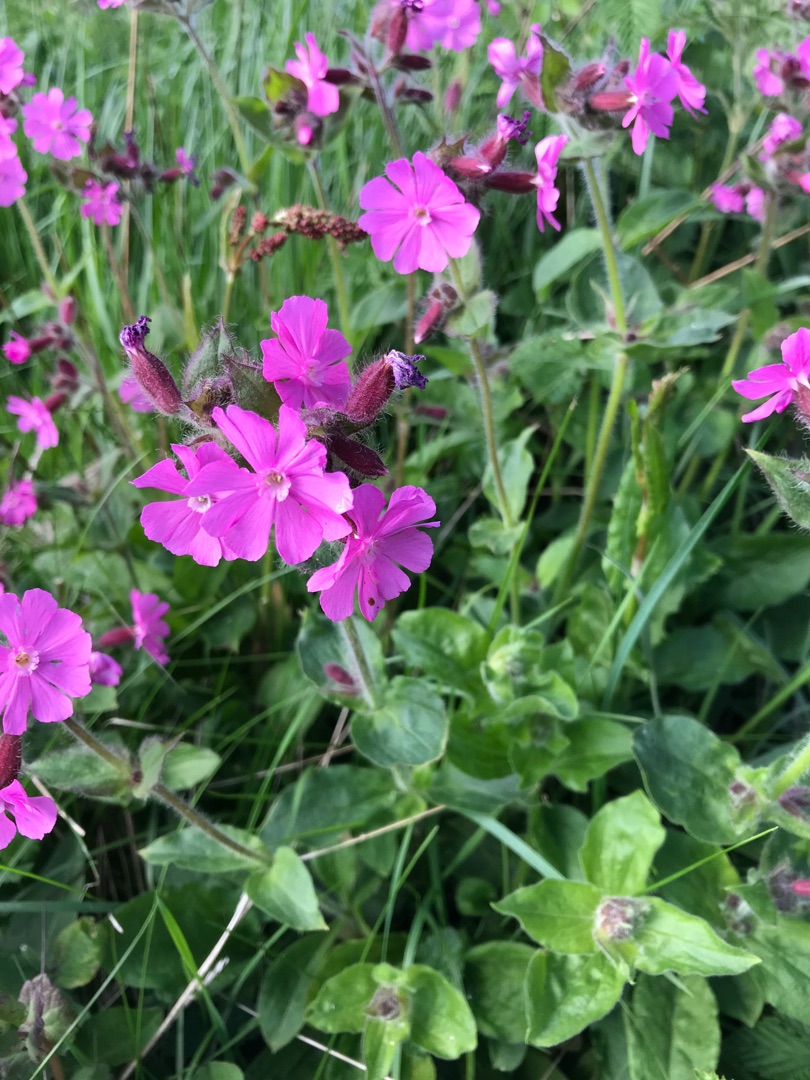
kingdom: Plantae
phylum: Tracheophyta
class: Magnoliopsida
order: Caryophyllales
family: Caryophyllaceae
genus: Silene
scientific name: Silene dioica
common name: Dagpragtstjerne
